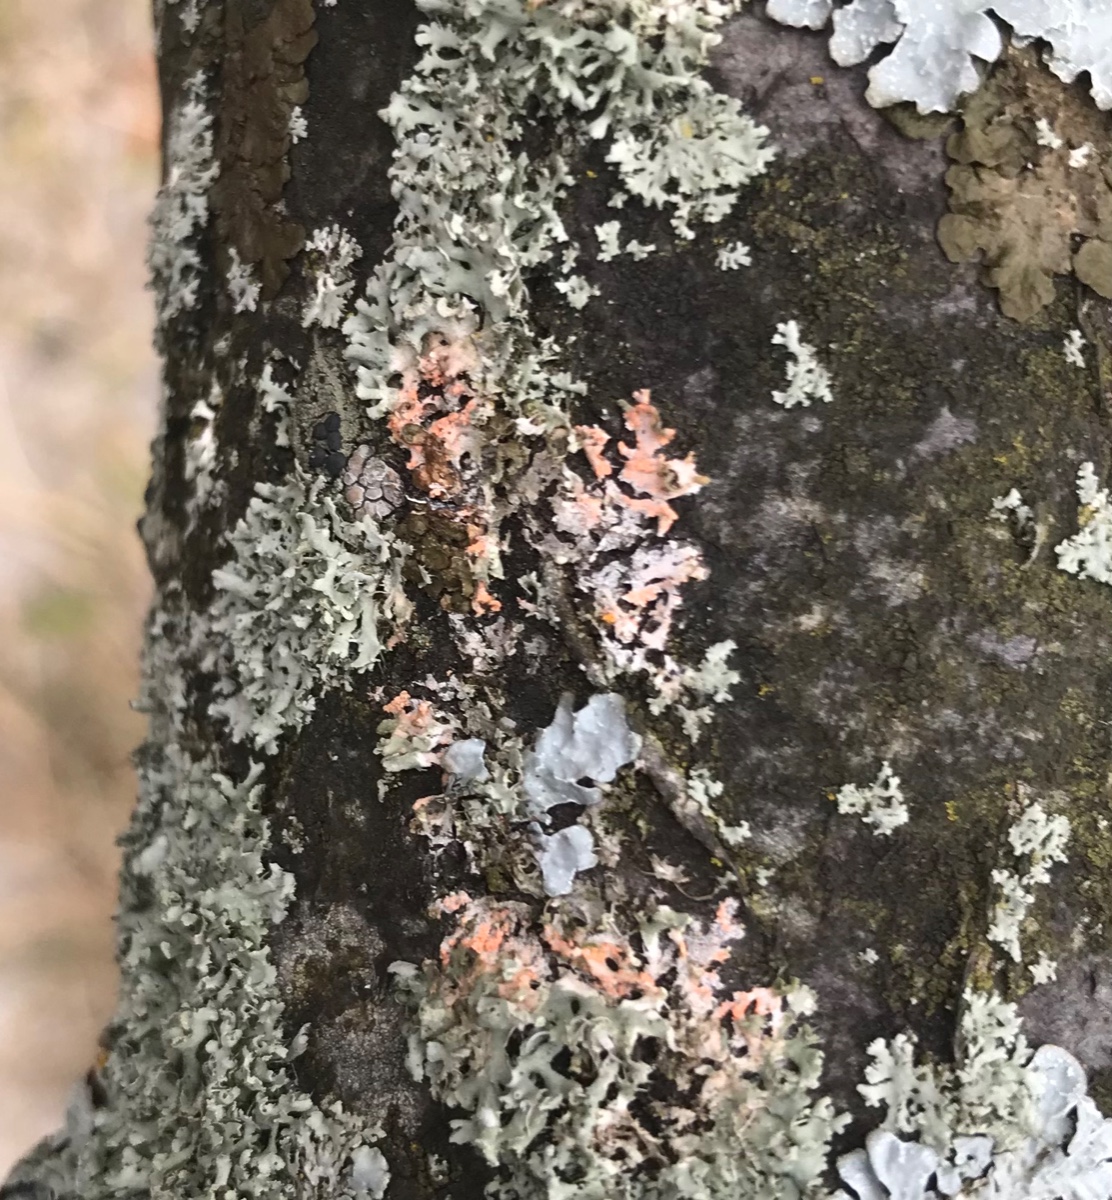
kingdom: Fungi
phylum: Basidiomycota
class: Agaricomycetes
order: Corticiales
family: Corticiaceae
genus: Erythricium
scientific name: Erythricium aurantiacum
